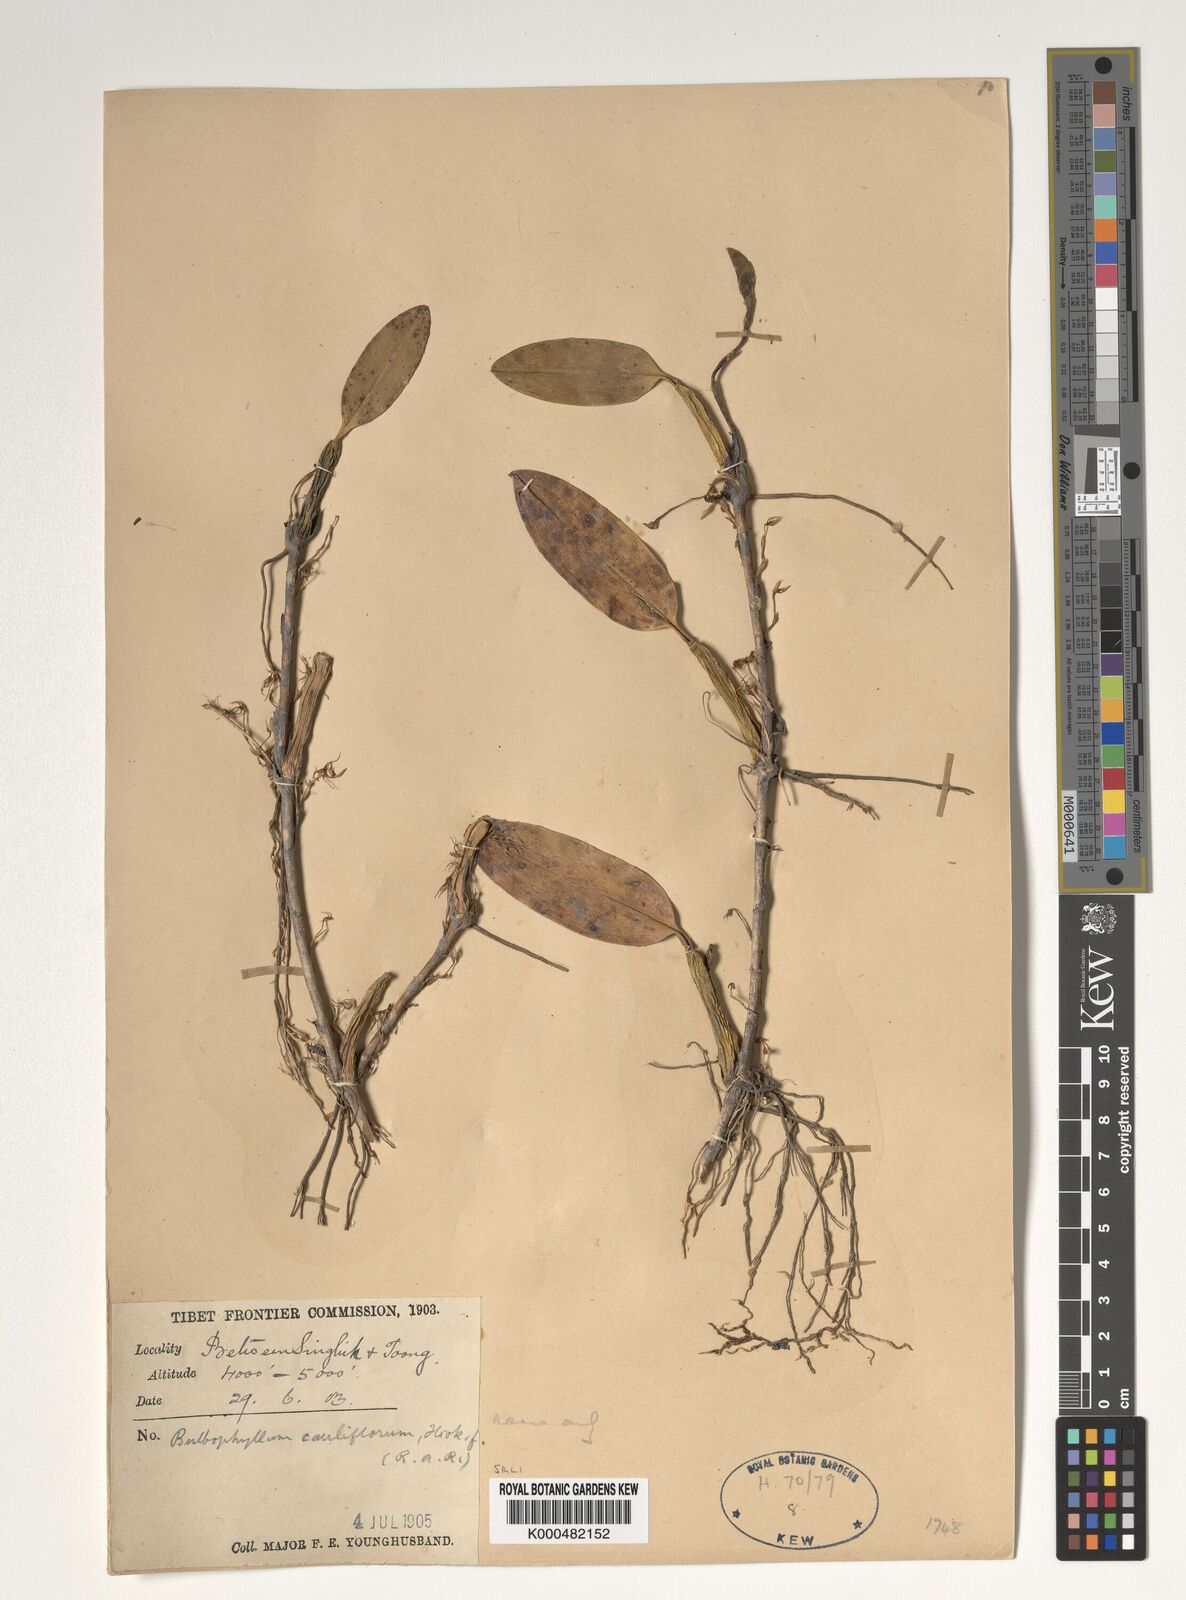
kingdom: Plantae
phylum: Tracheophyta
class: Liliopsida
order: Asparagales
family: Orchidaceae
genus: Bulbophyllum
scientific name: Bulbophyllum cauliflorum
